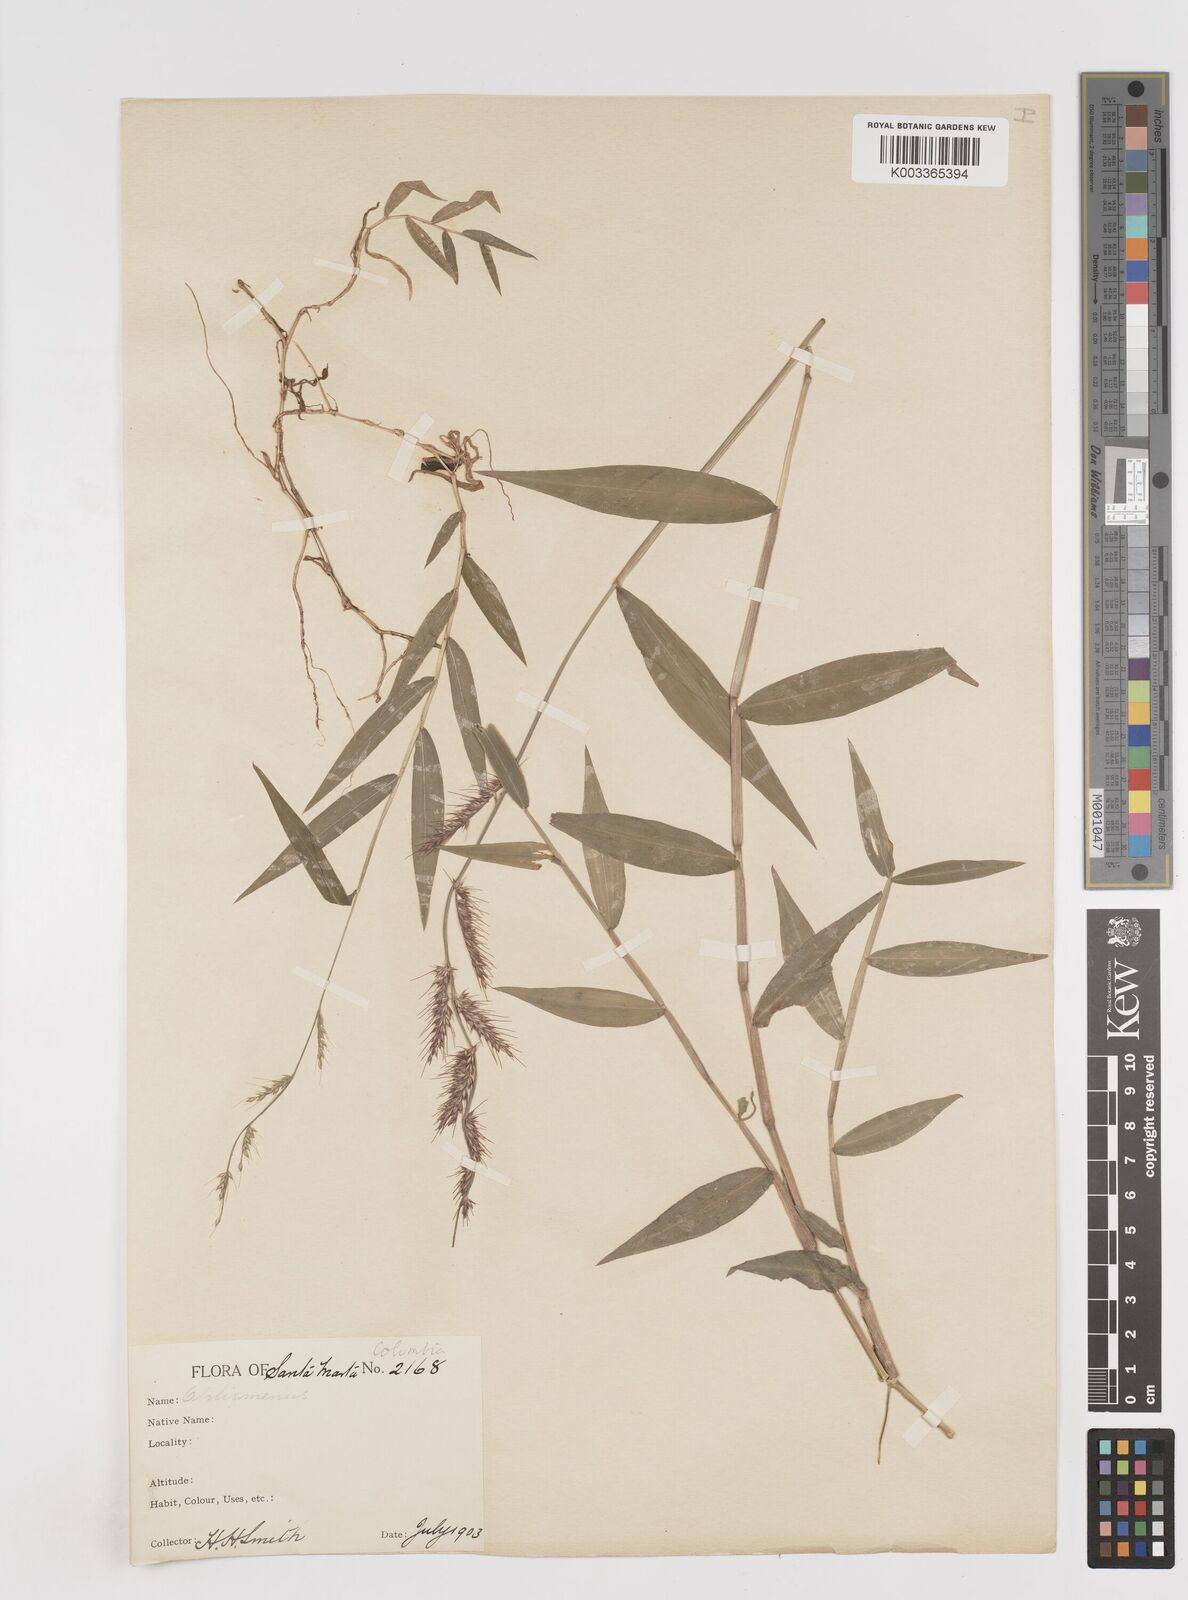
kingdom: Plantae
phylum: Tracheophyta
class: Liliopsida
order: Poales
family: Poaceae
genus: Oplismenus
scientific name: Oplismenus hirtellus
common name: Basketgrass
